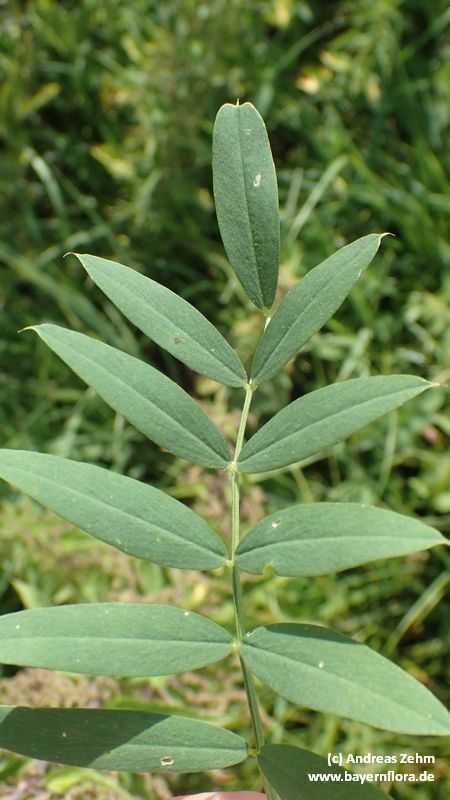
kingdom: Plantae
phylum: Tracheophyta
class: Magnoliopsida
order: Fabales
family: Fabaceae
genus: Galega
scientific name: Galega officinalis
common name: Goat's-rue
